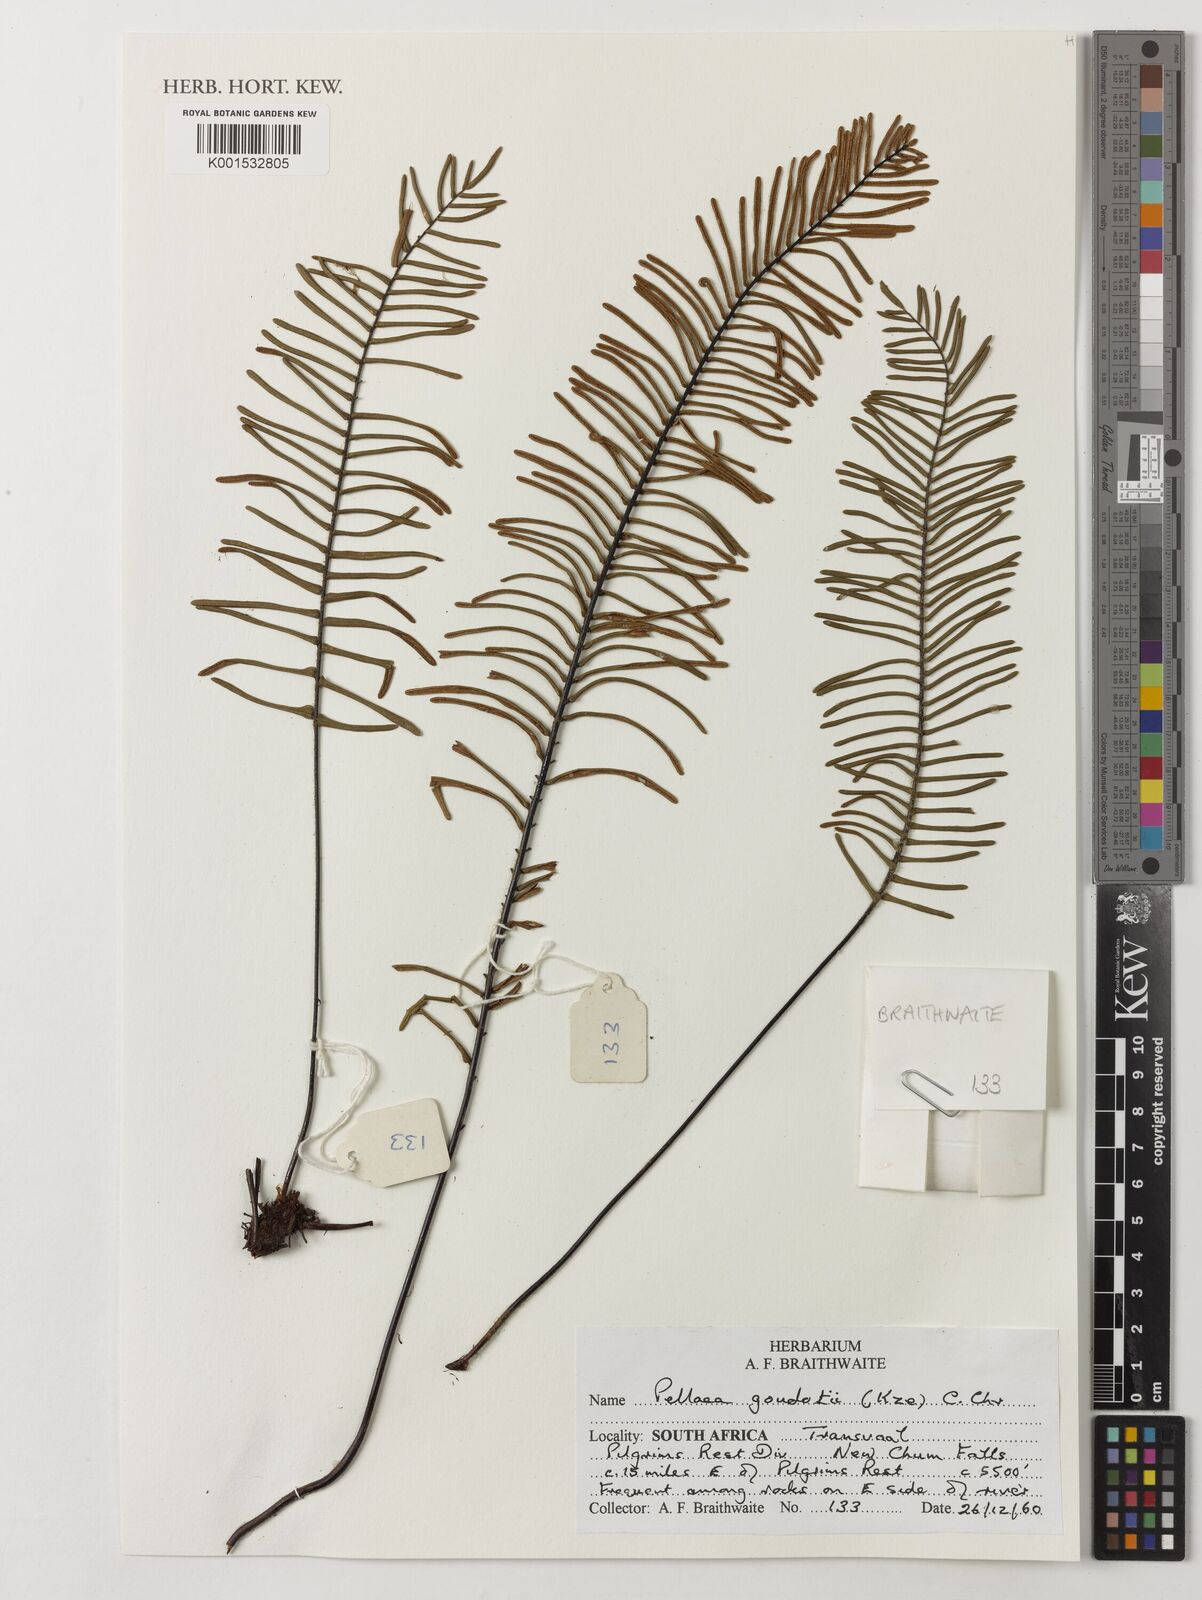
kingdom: Plantae
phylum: Tracheophyta
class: Polypodiopsida
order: Polypodiales
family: Pteridaceae
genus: Pellaea
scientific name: Pellaea pectiniformis
